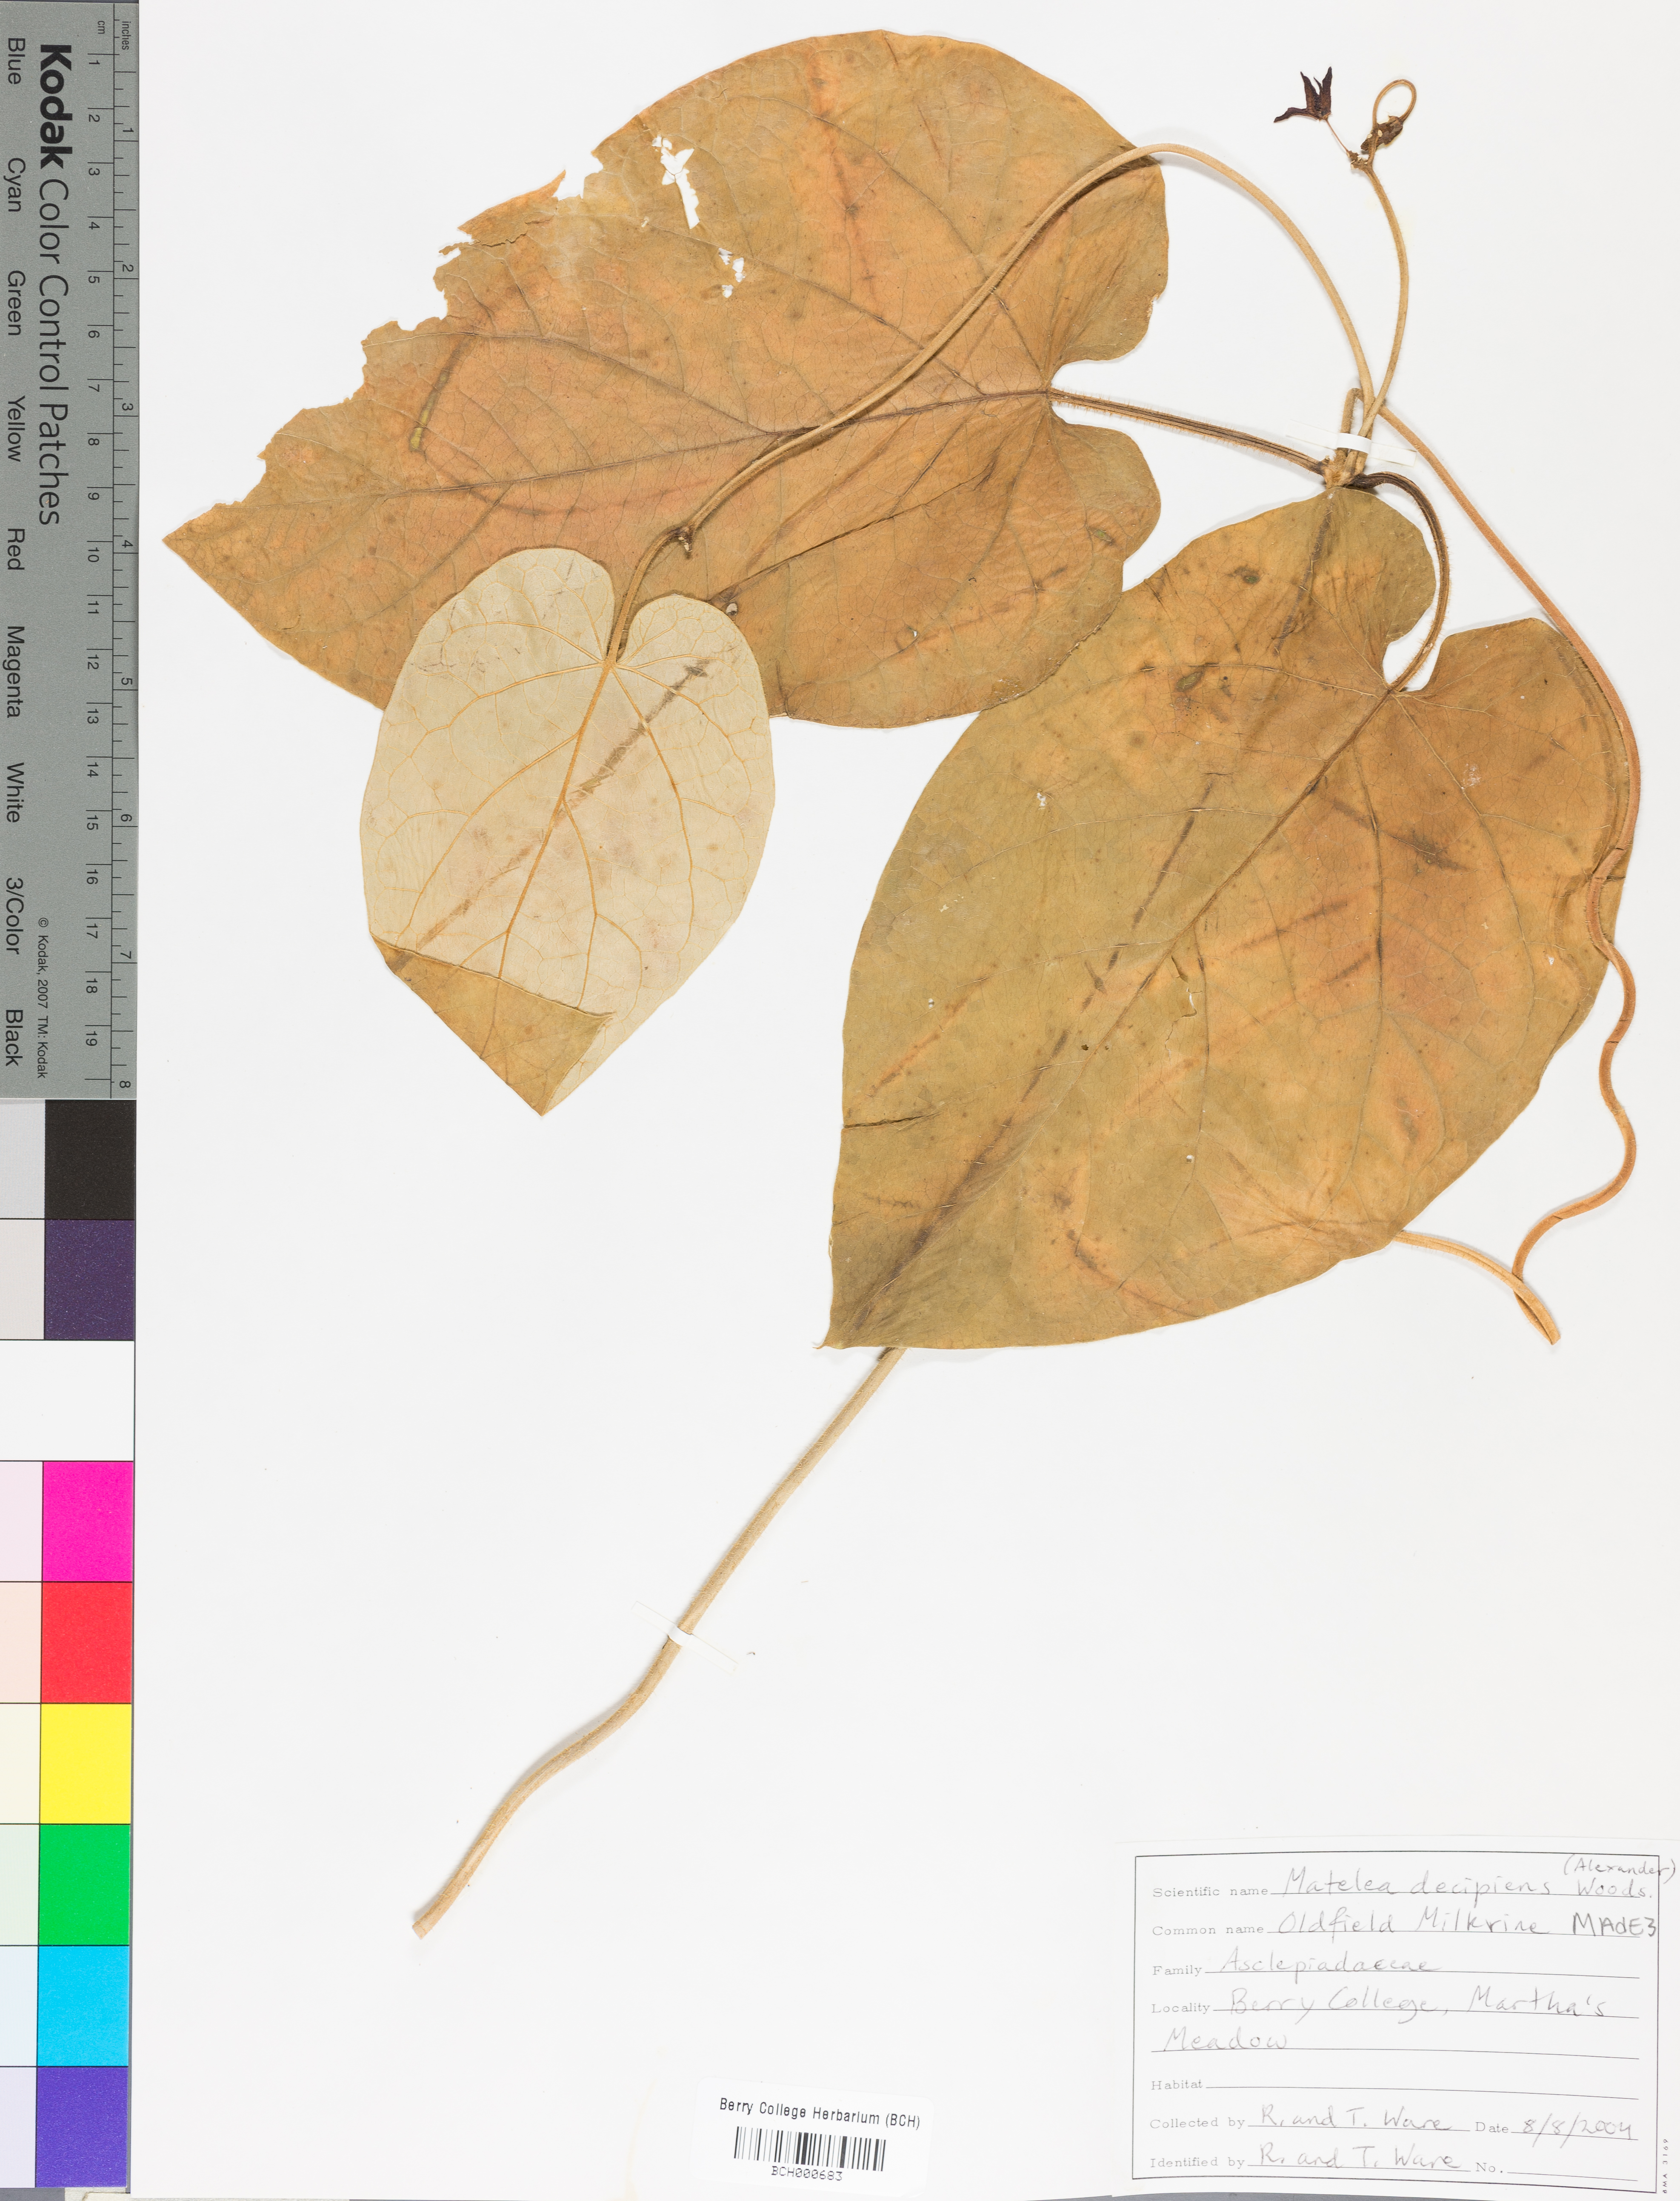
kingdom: Plantae
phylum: Tracheophyta
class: Magnoliopsida
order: Gentianales
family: Apocynaceae
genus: Matelea
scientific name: Matelea decipiens
